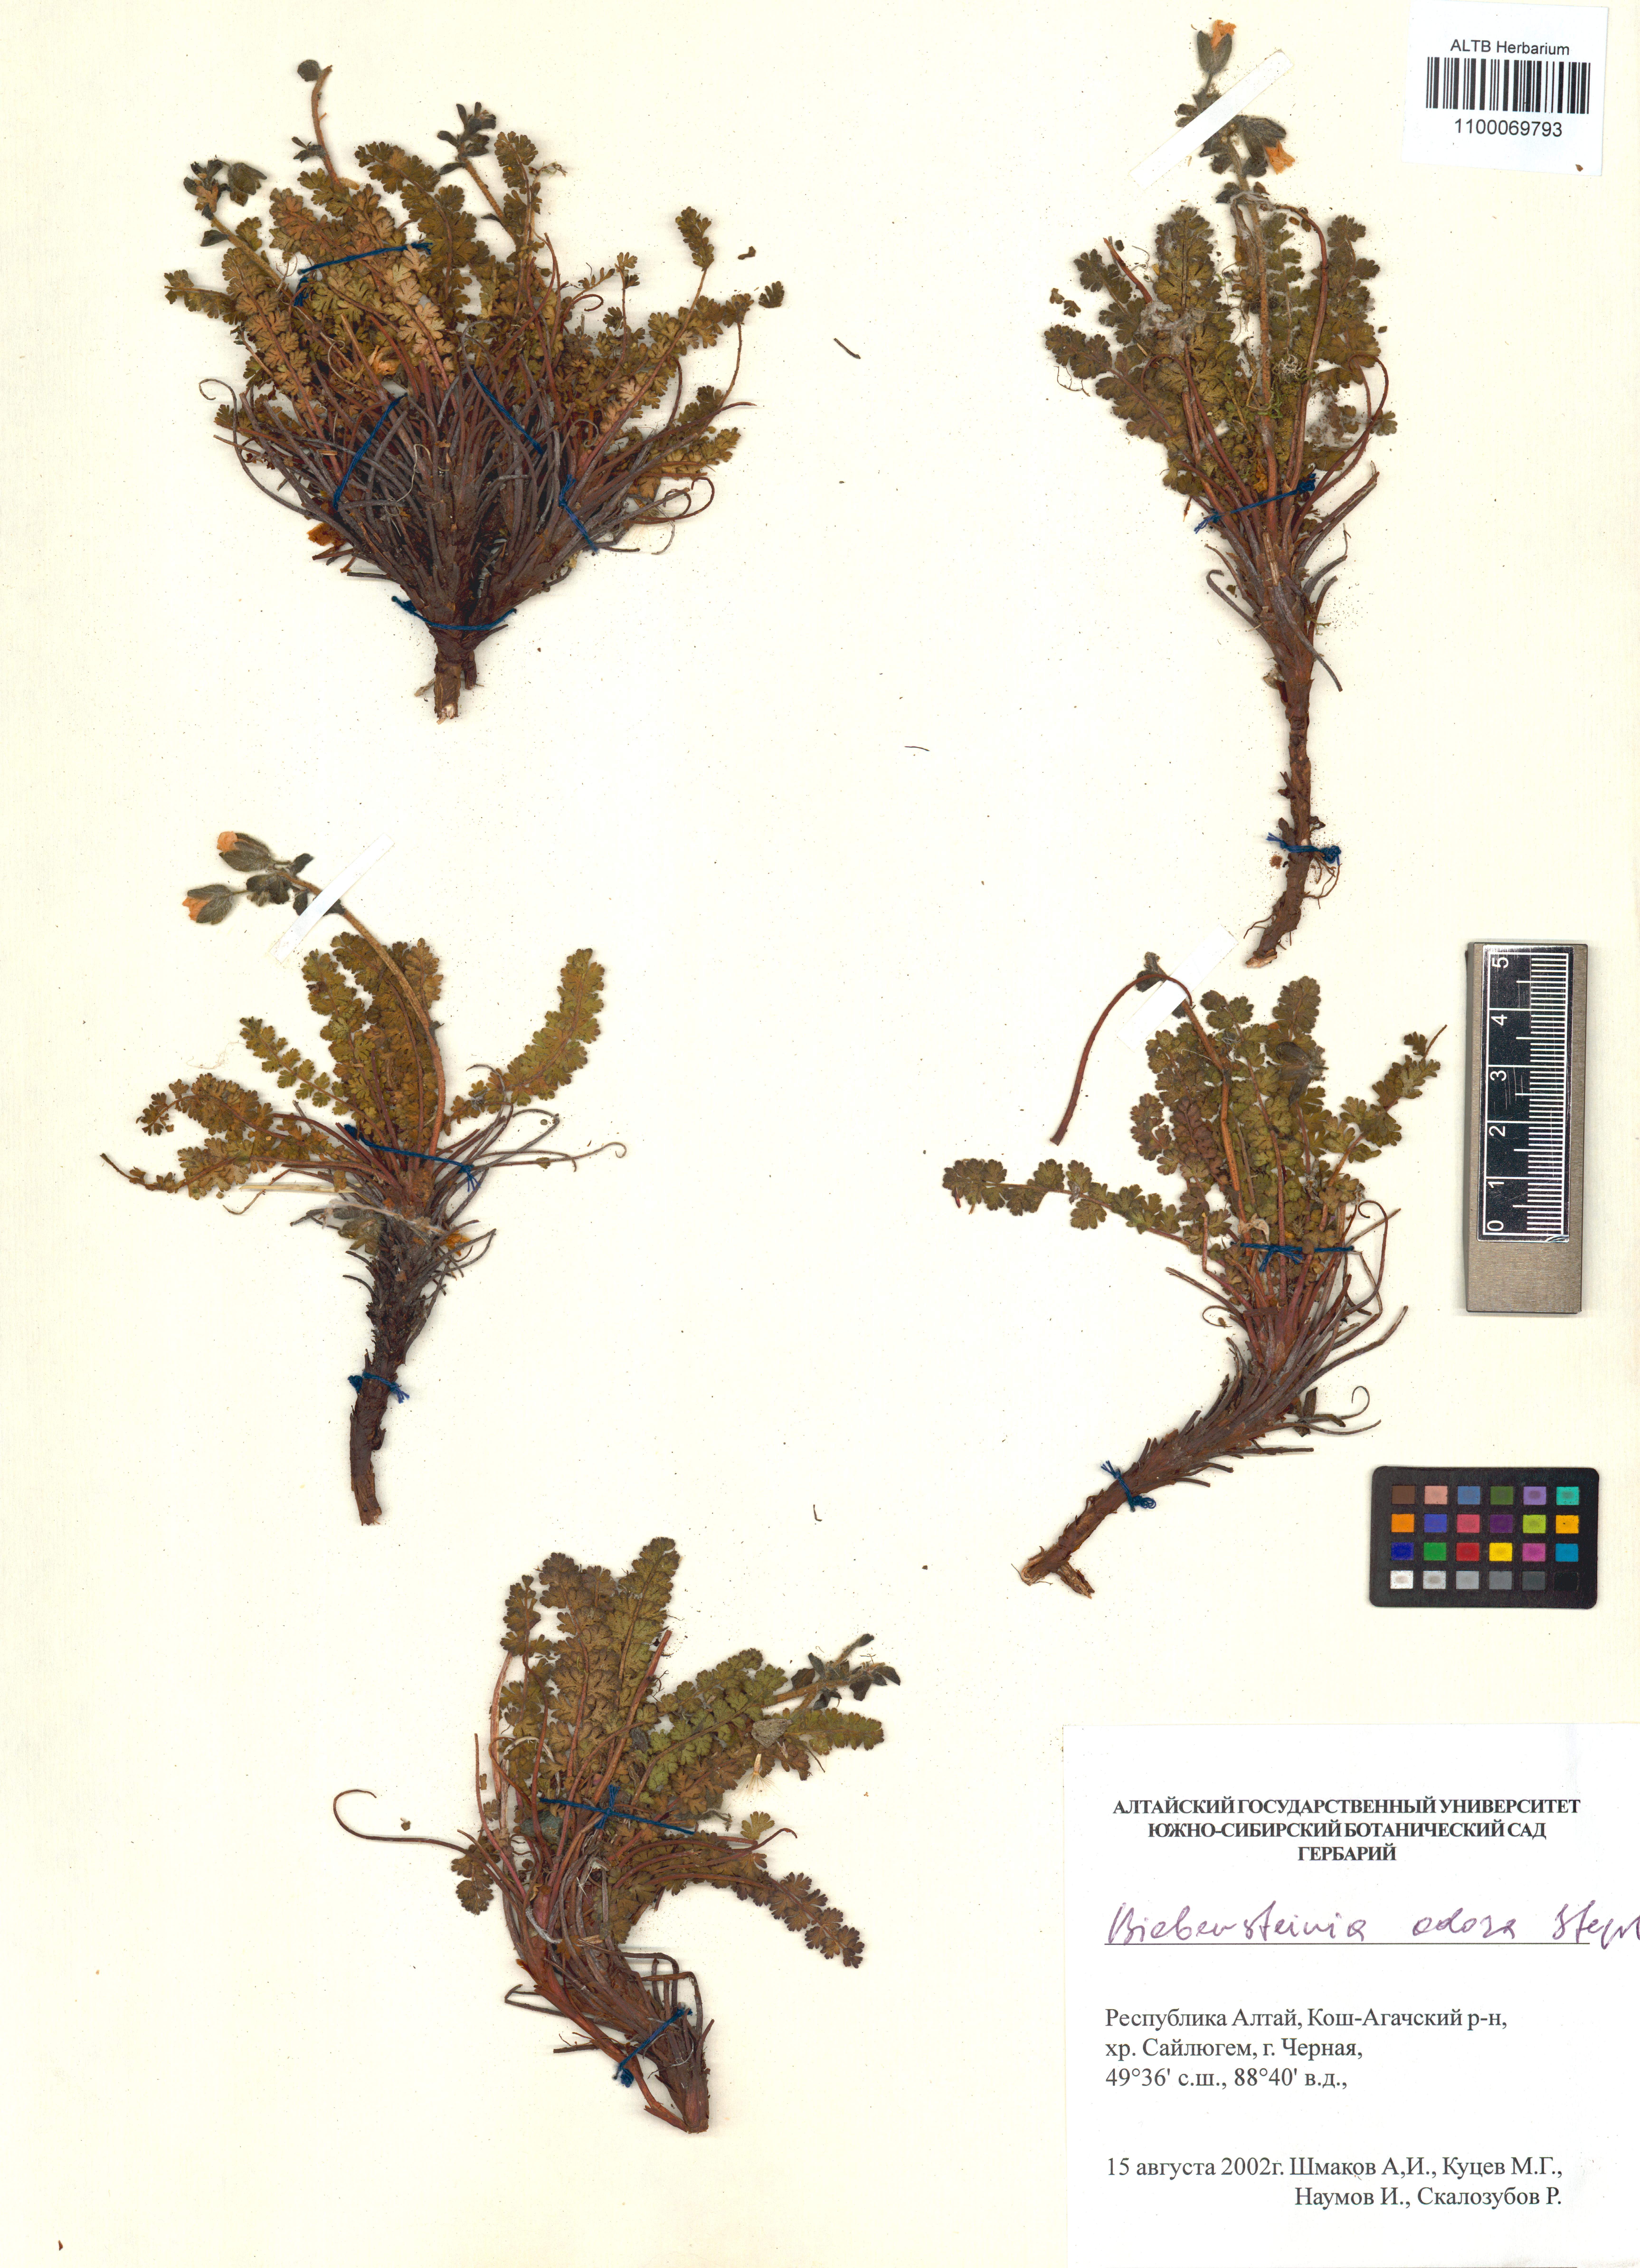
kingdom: Plantae
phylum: Tracheophyta
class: Magnoliopsida
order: Sapindales
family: Biebersteiniaceae
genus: Biebersteinia
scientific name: Biebersteinia odora
